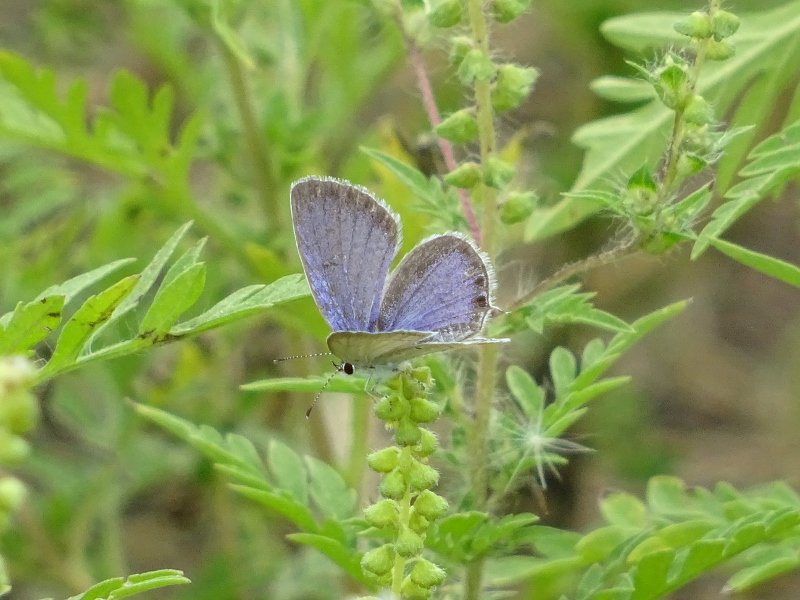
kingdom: Animalia
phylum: Arthropoda
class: Insecta
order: Lepidoptera
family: Lycaenidae
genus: Elkalyce
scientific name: Elkalyce comyntas
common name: Eastern Tailed-Blue
